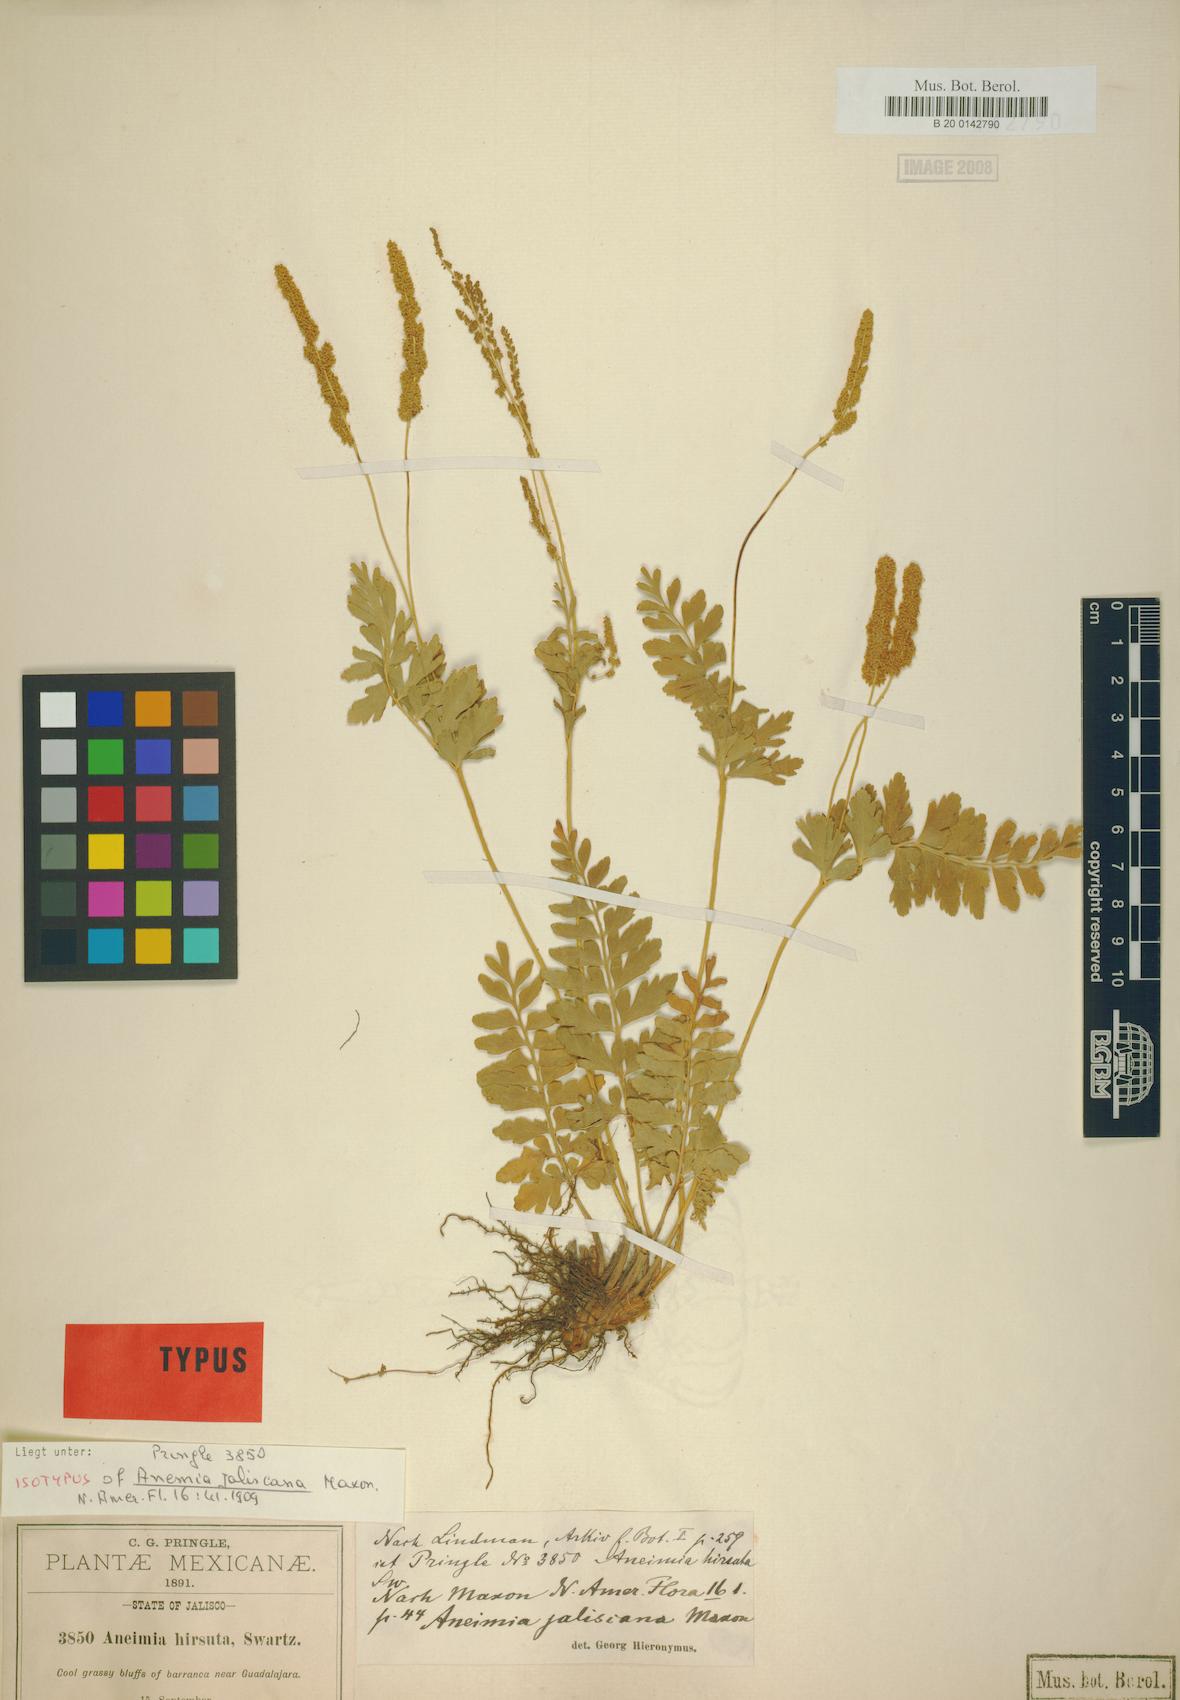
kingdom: Plantae
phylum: Tracheophyta
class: Polypodiopsida
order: Schizaeales
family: Anemiaceae
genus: Anemia
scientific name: Anemia jaliscana
